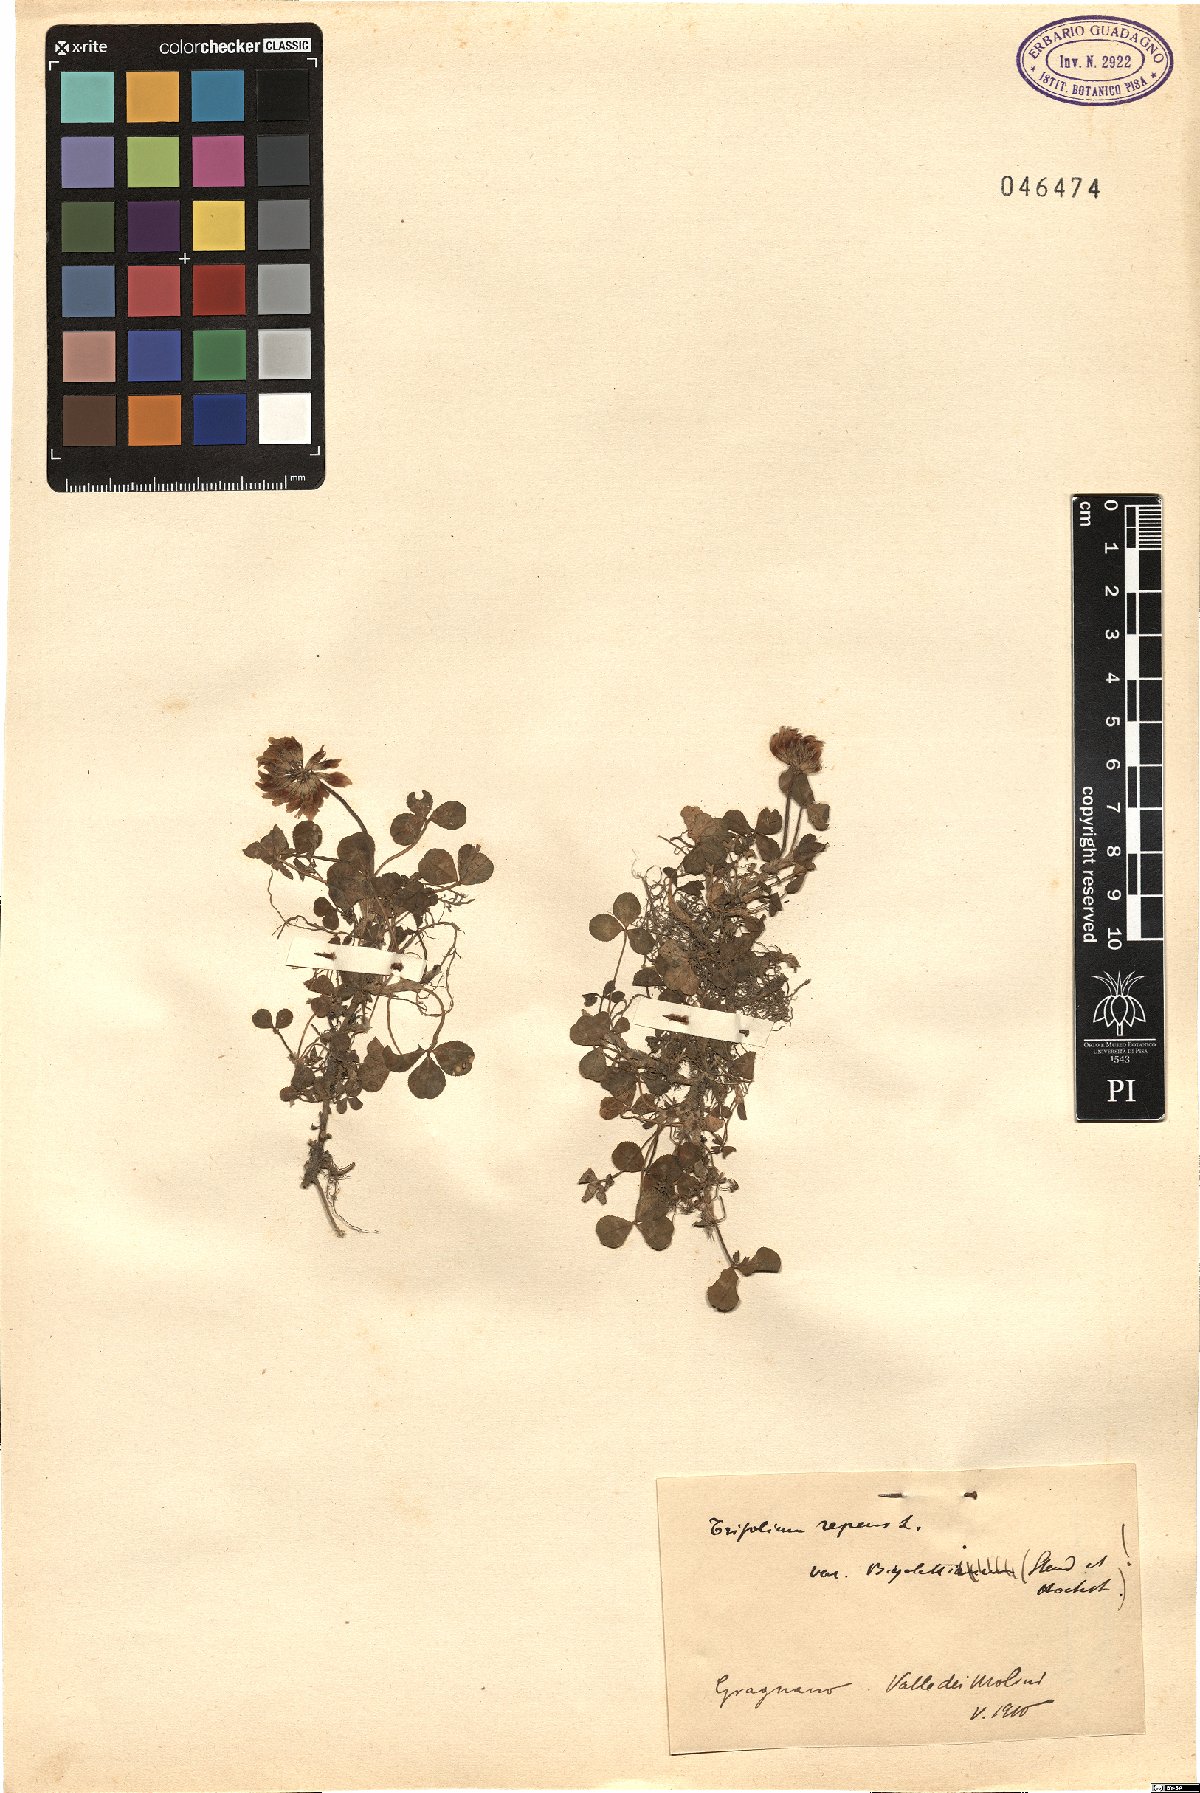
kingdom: Plantae
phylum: Tracheophyta
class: Magnoliopsida
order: Fabales
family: Fabaceae
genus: Trifolium
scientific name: Trifolium repens
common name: White clover
